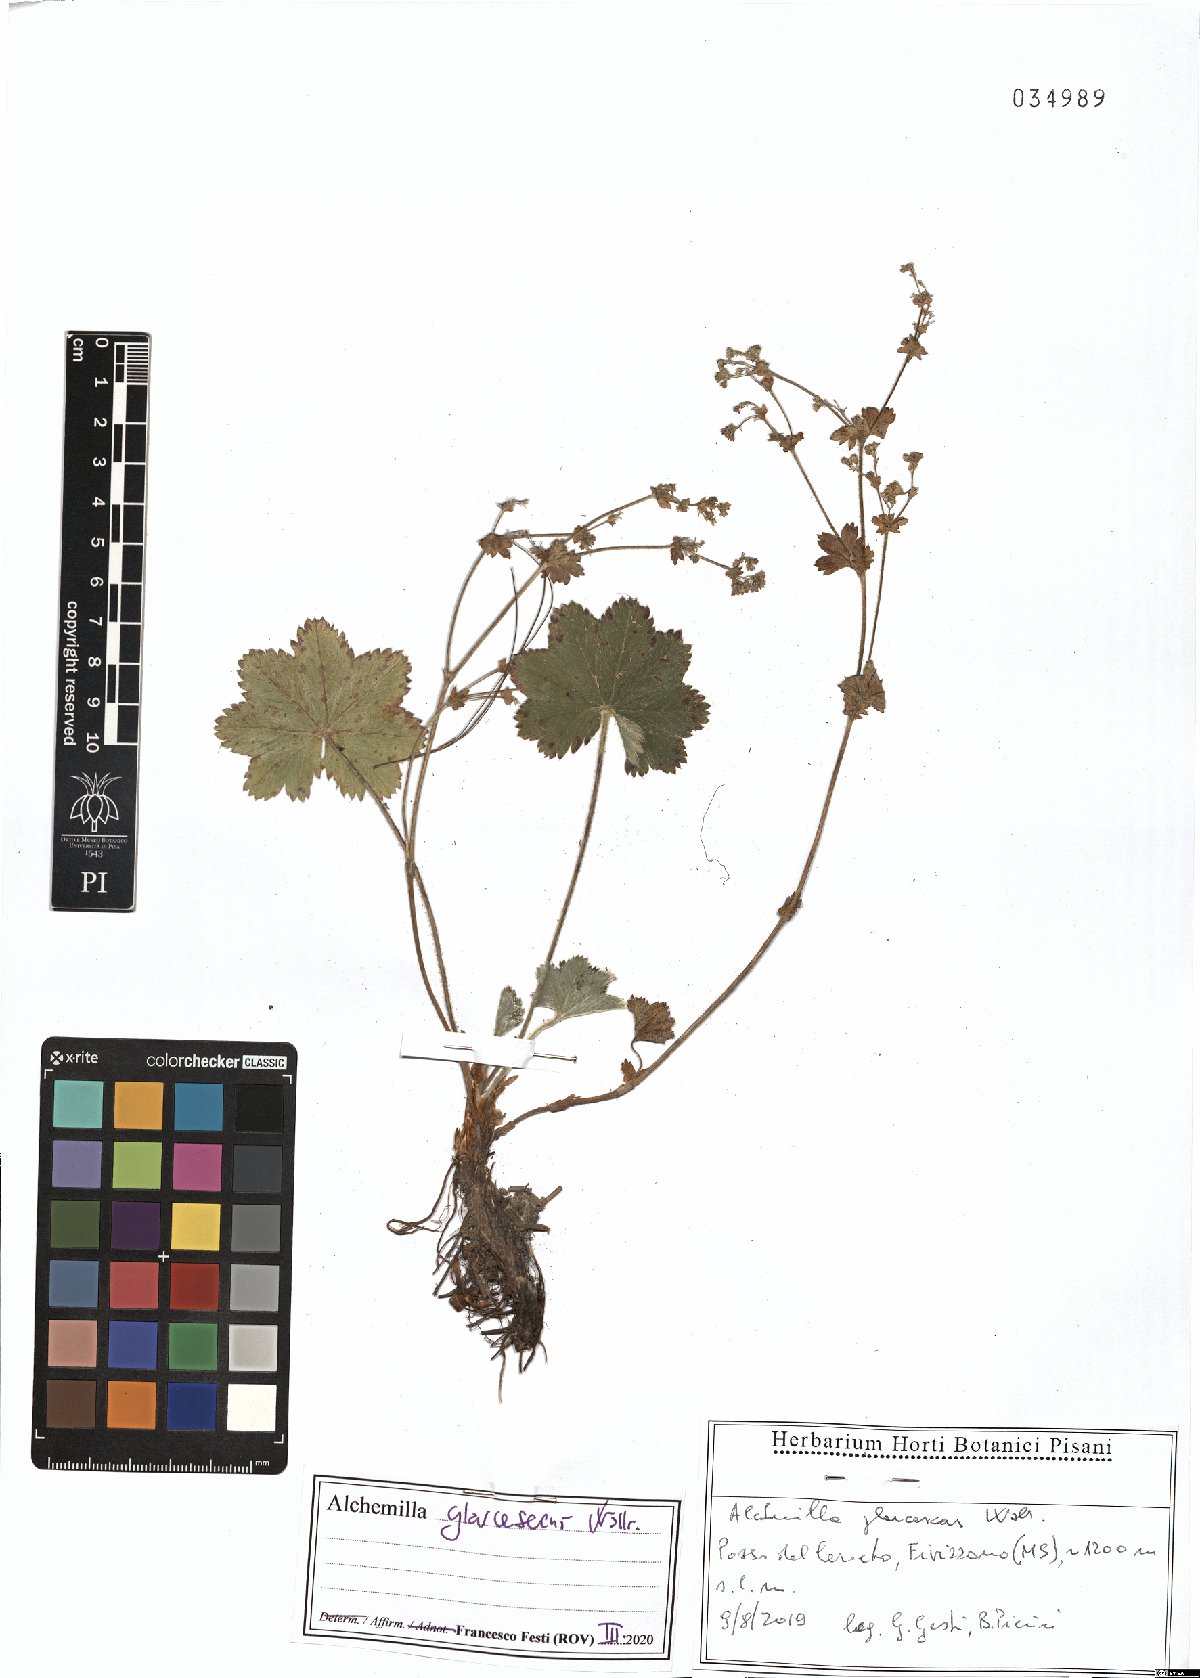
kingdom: Plantae
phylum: Tracheophyta
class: Magnoliopsida
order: Rosales
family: Rosaceae
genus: Alchemilla
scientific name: Alchemilla glaucescens
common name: Silky lady's mantle
